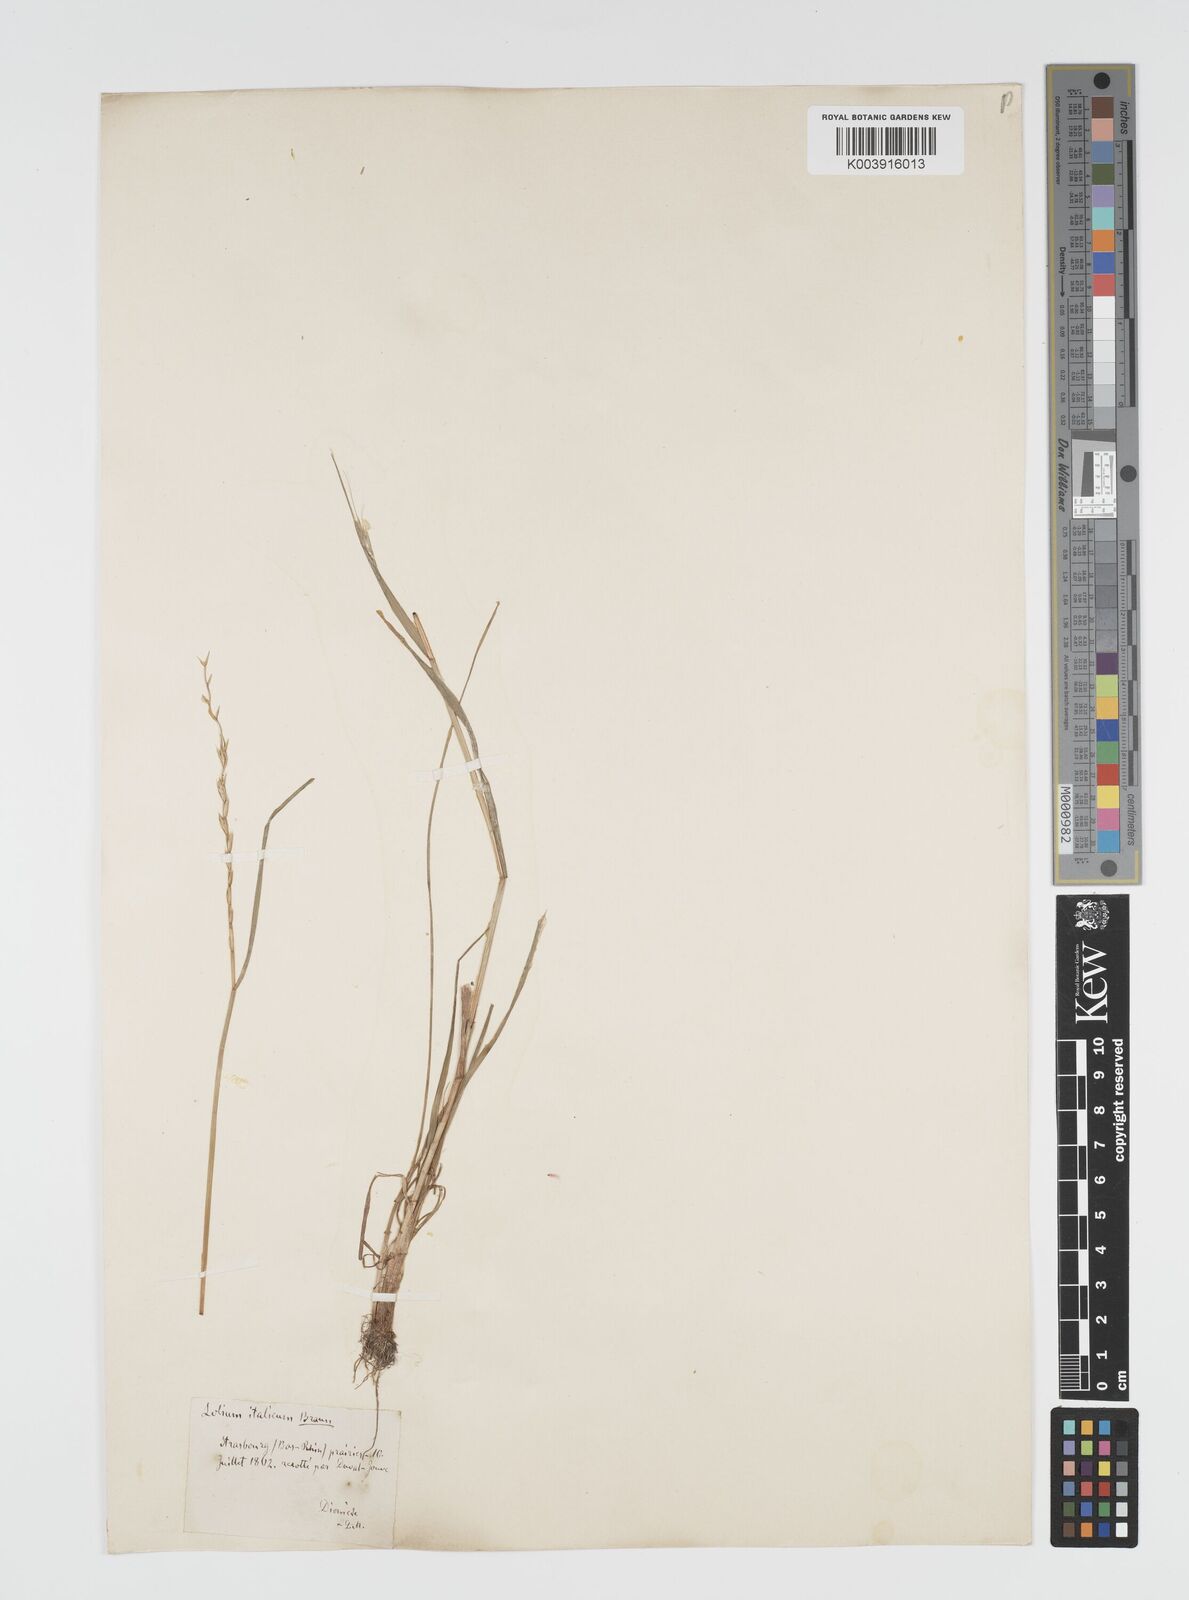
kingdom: Plantae
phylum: Tracheophyta
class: Liliopsida
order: Poales
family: Poaceae
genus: Lolium
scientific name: Lolium multiflorum
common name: Annual ryegrass
